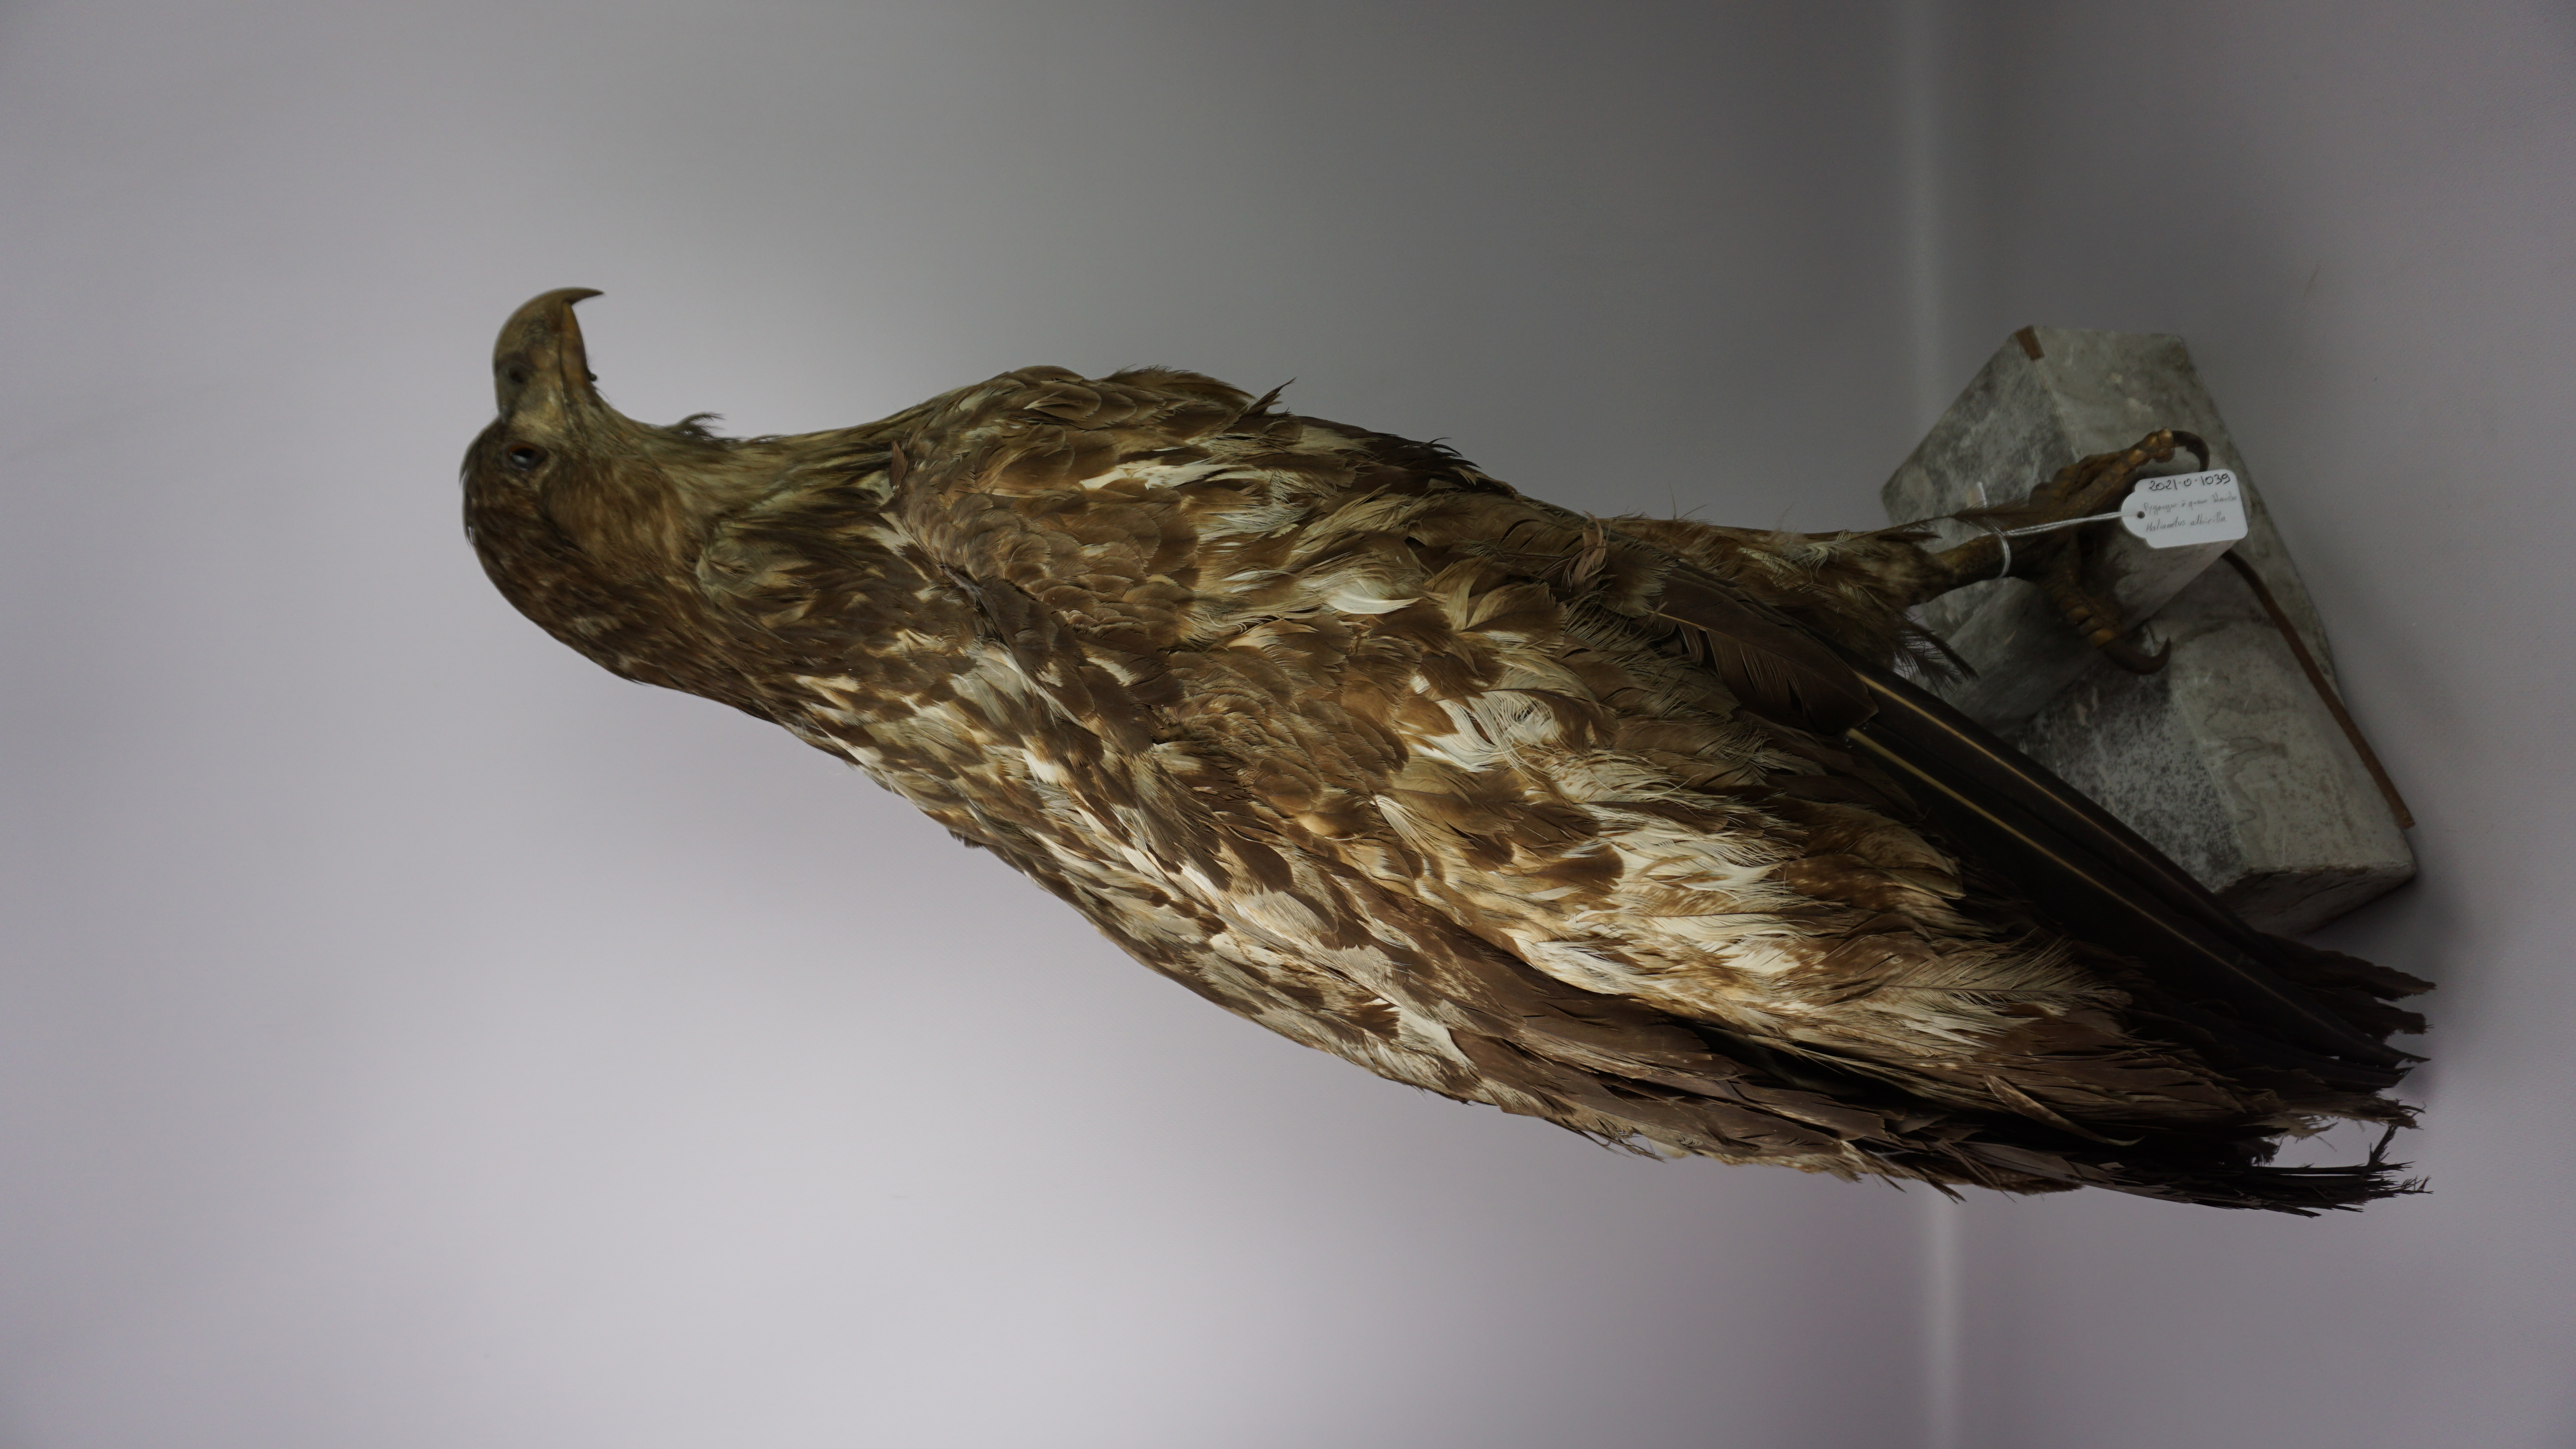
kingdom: Animalia
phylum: Chordata
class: Aves
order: Accipitriformes
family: Accipitridae
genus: Haliaeetus
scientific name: Haliaeetus albicilla
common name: White-tailed eagle
